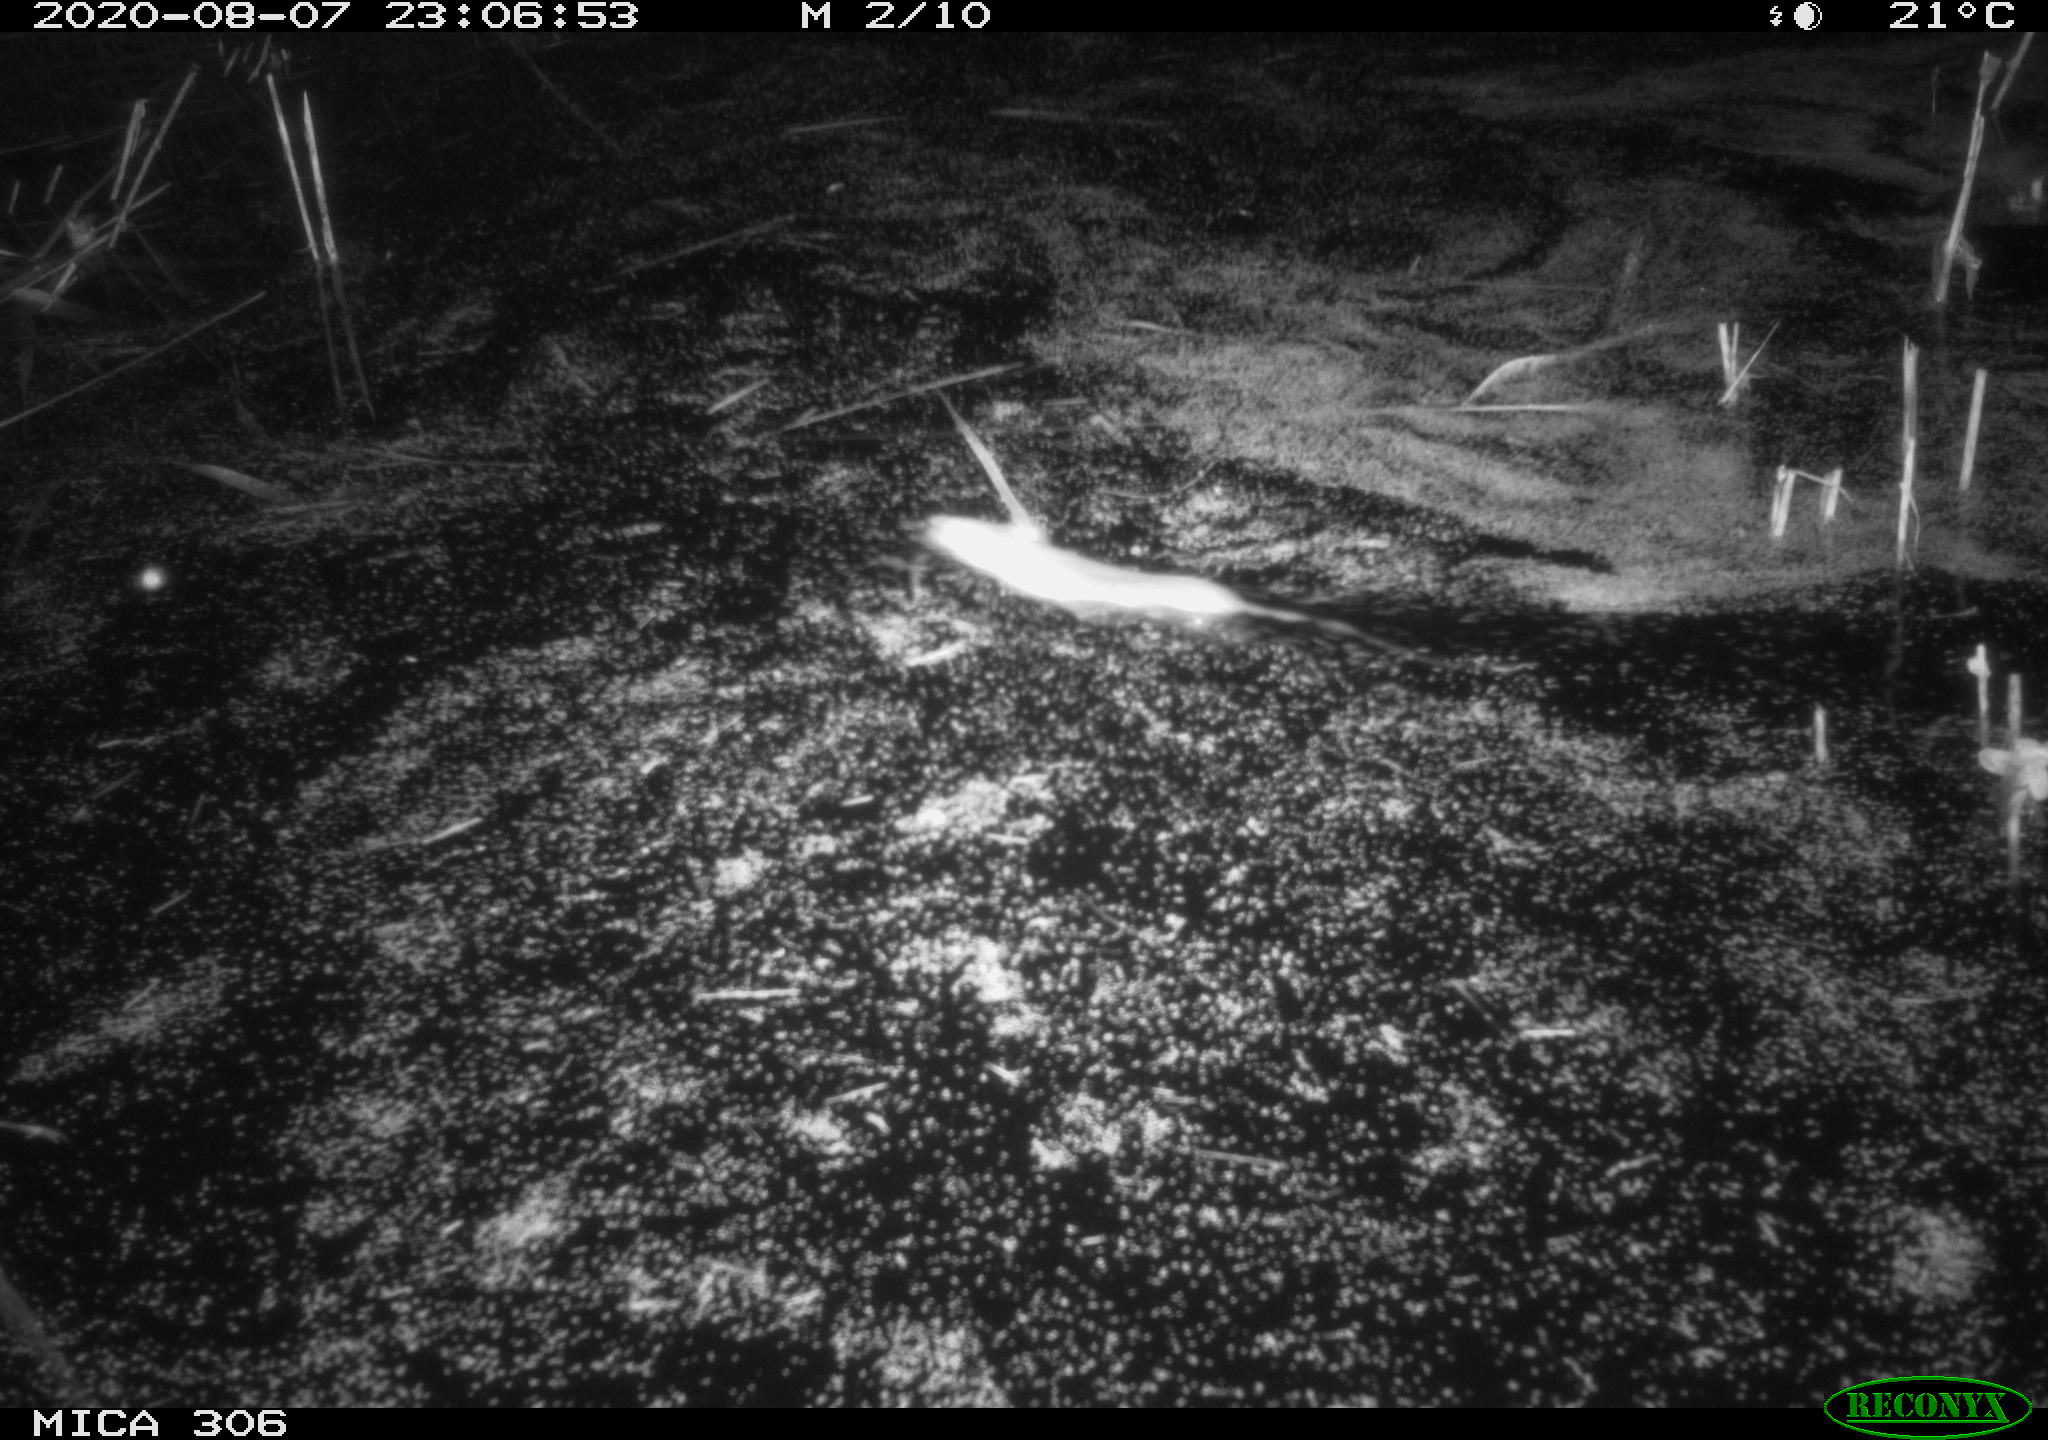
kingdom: Animalia
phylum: Chordata
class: Mammalia
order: Rodentia
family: Muridae
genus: Rattus
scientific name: Rattus norvegicus
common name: Brown rat
